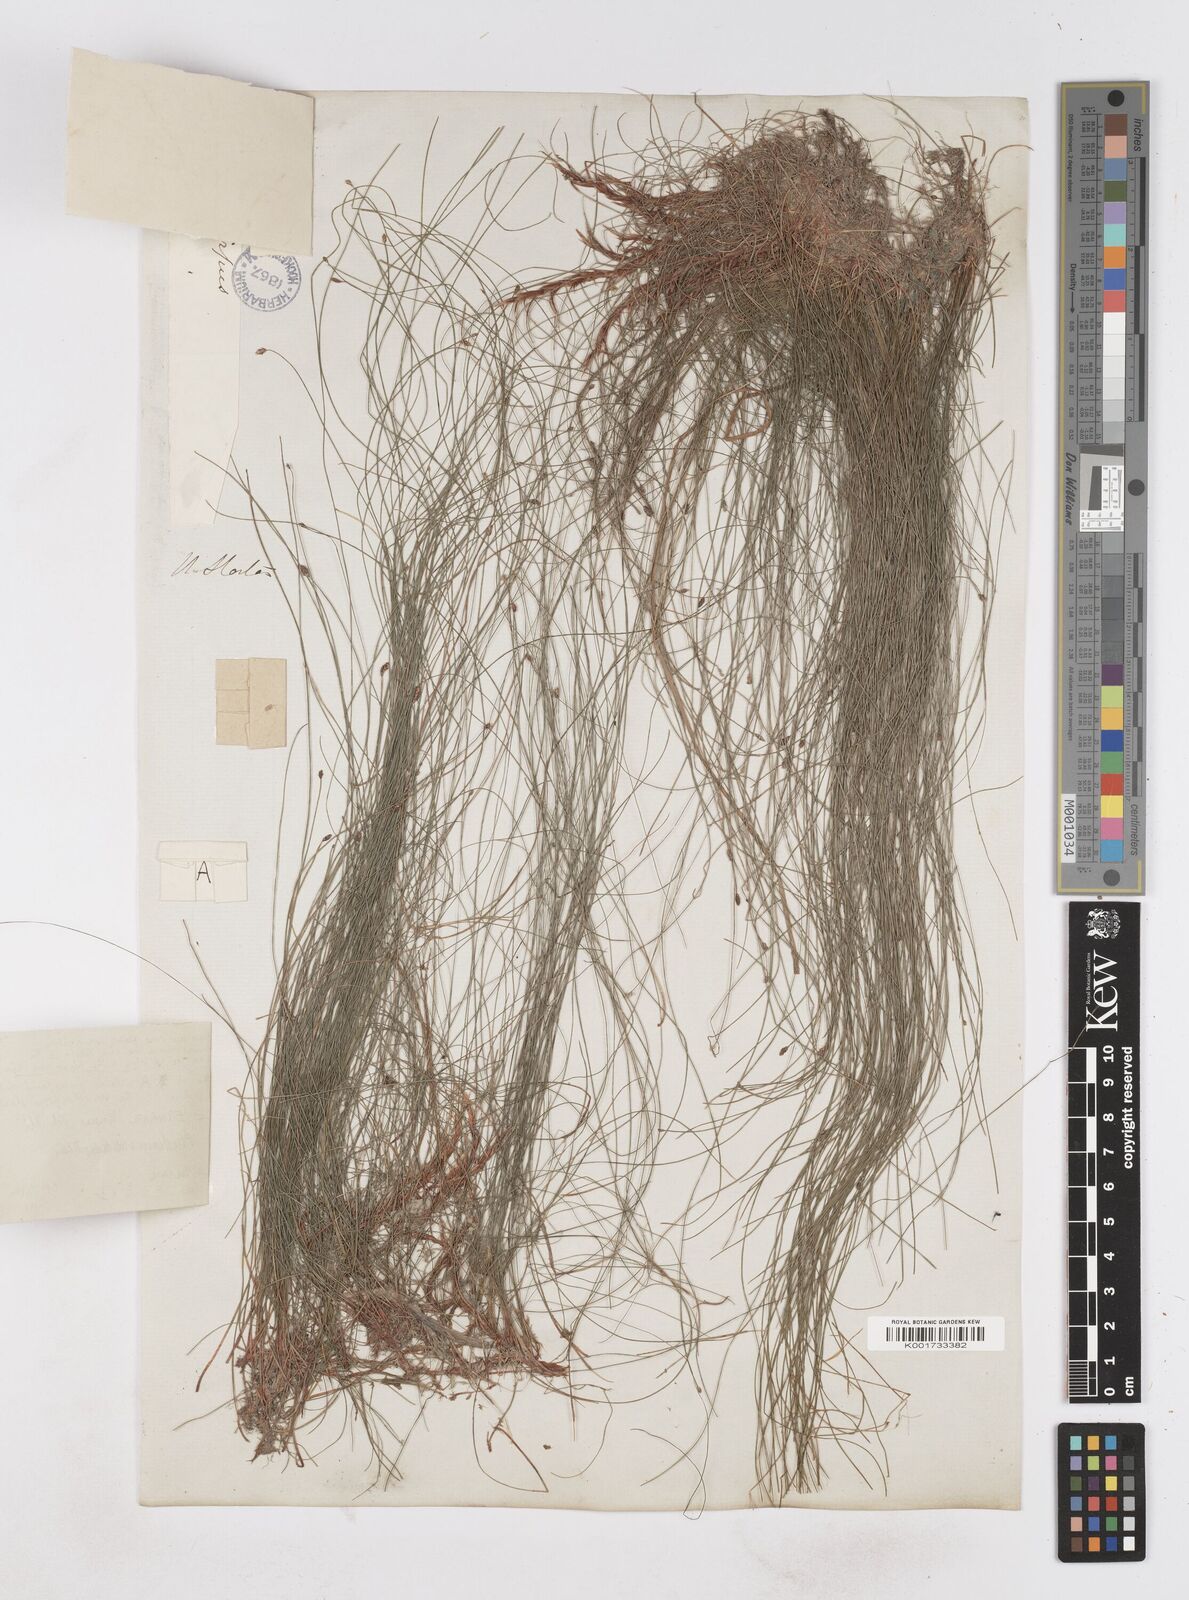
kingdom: Plantae
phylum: Tracheophyta
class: Liliopsida
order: Poales
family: Cyperaceae
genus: Eleocharis
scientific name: Eleocharis tenuis
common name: Dog's hair
